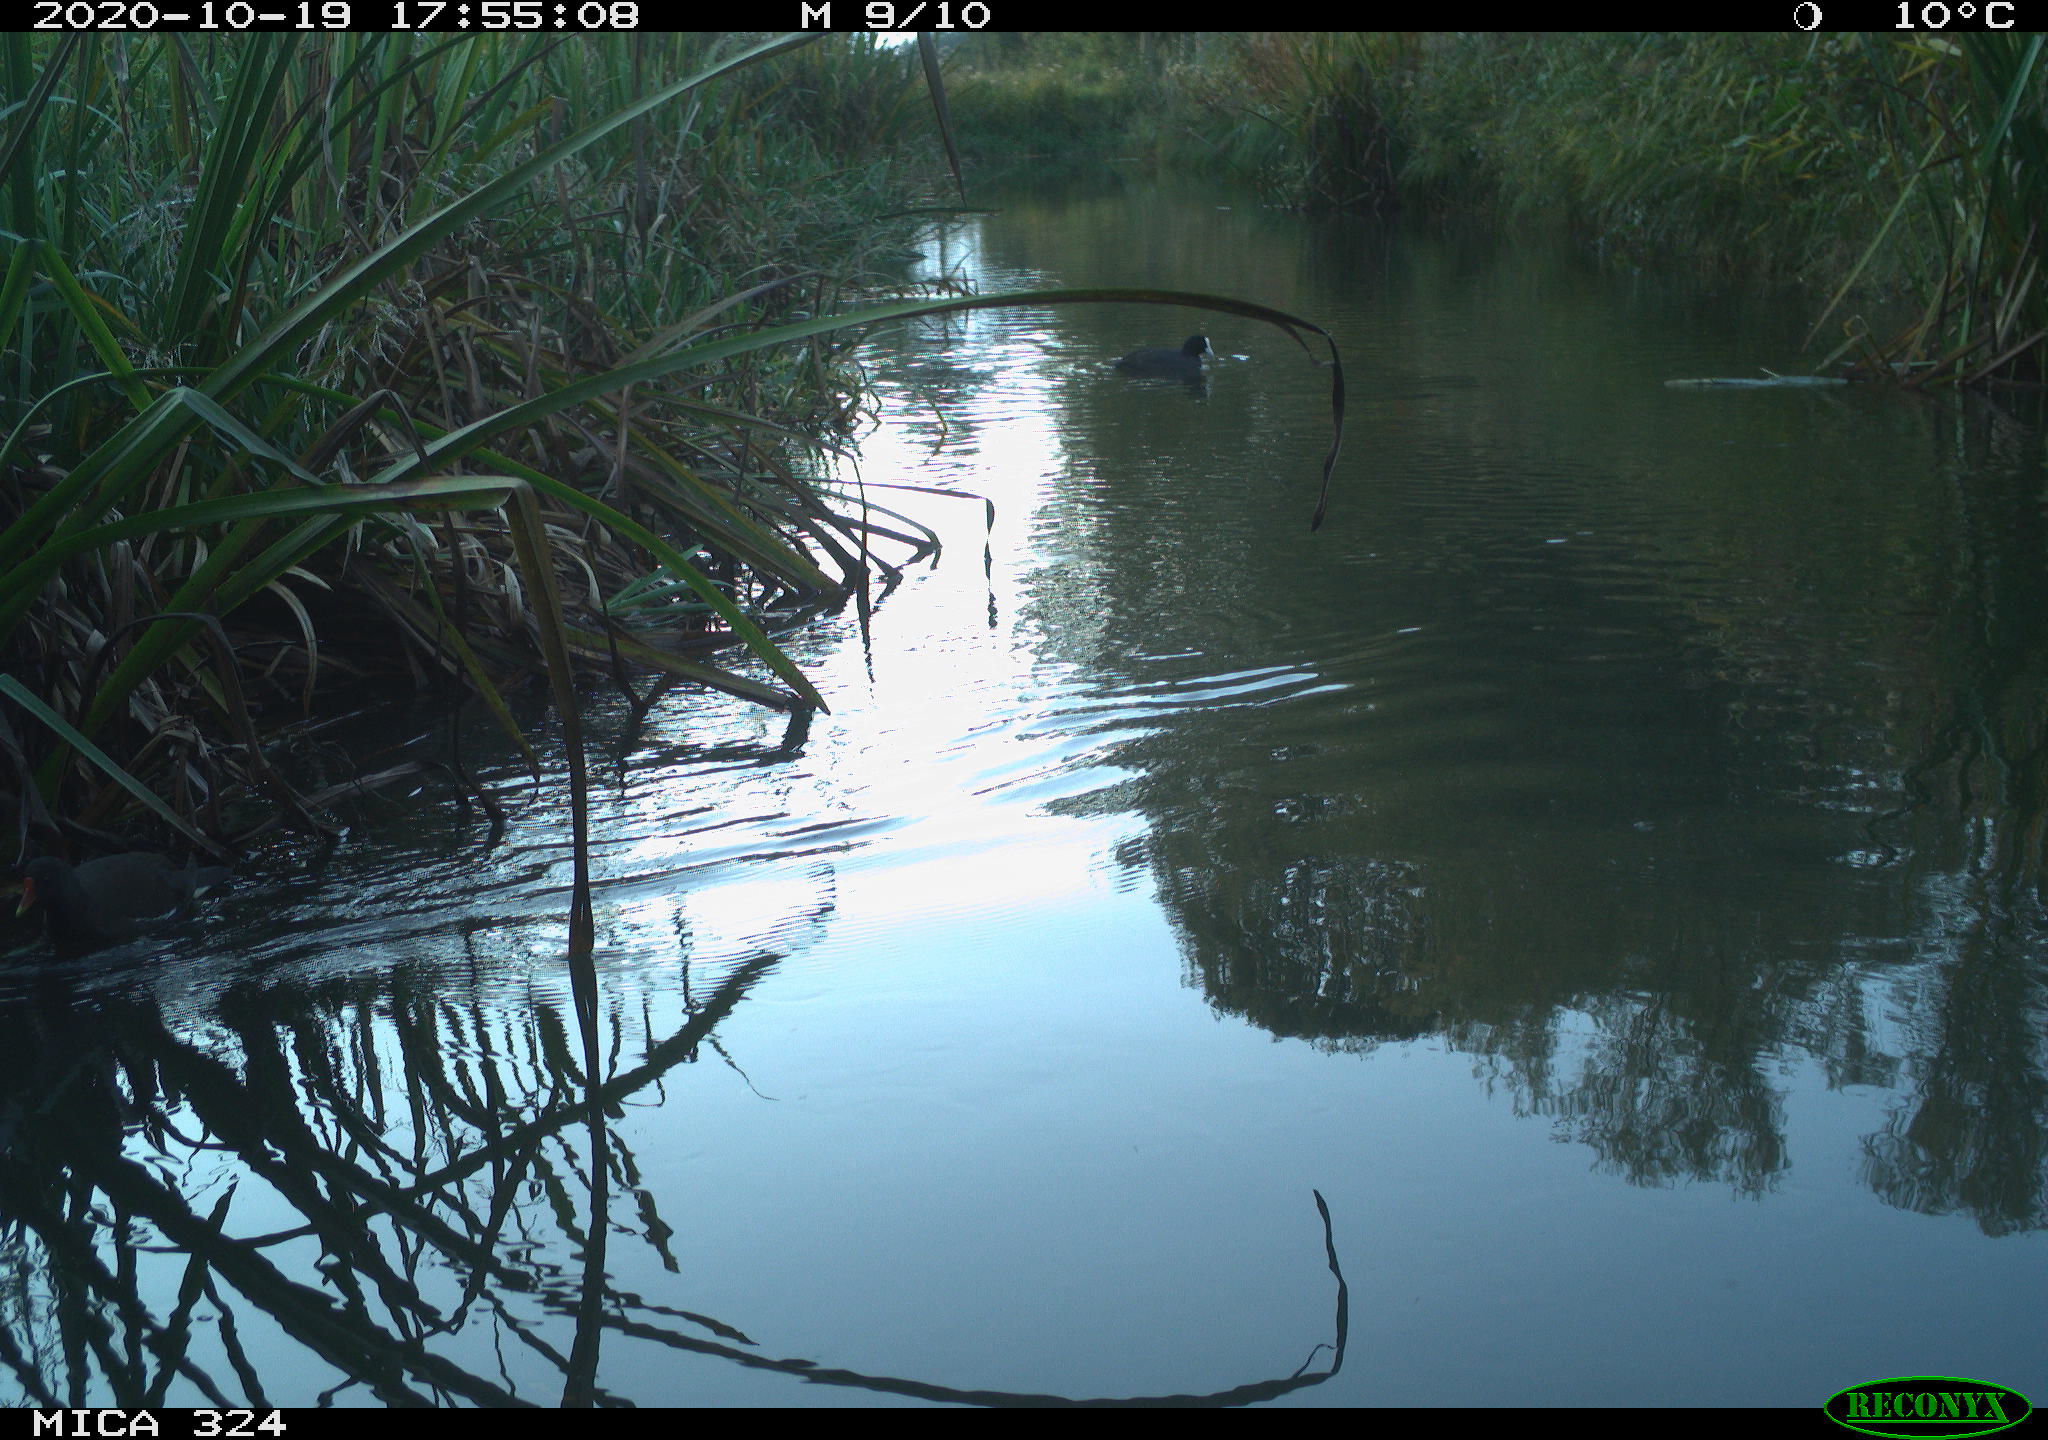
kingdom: Animalia
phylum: Chordata
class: Aves
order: Gruiformes
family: Rallidae
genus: Gallinula
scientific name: Gallinula chloropus
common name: Common moorhen
